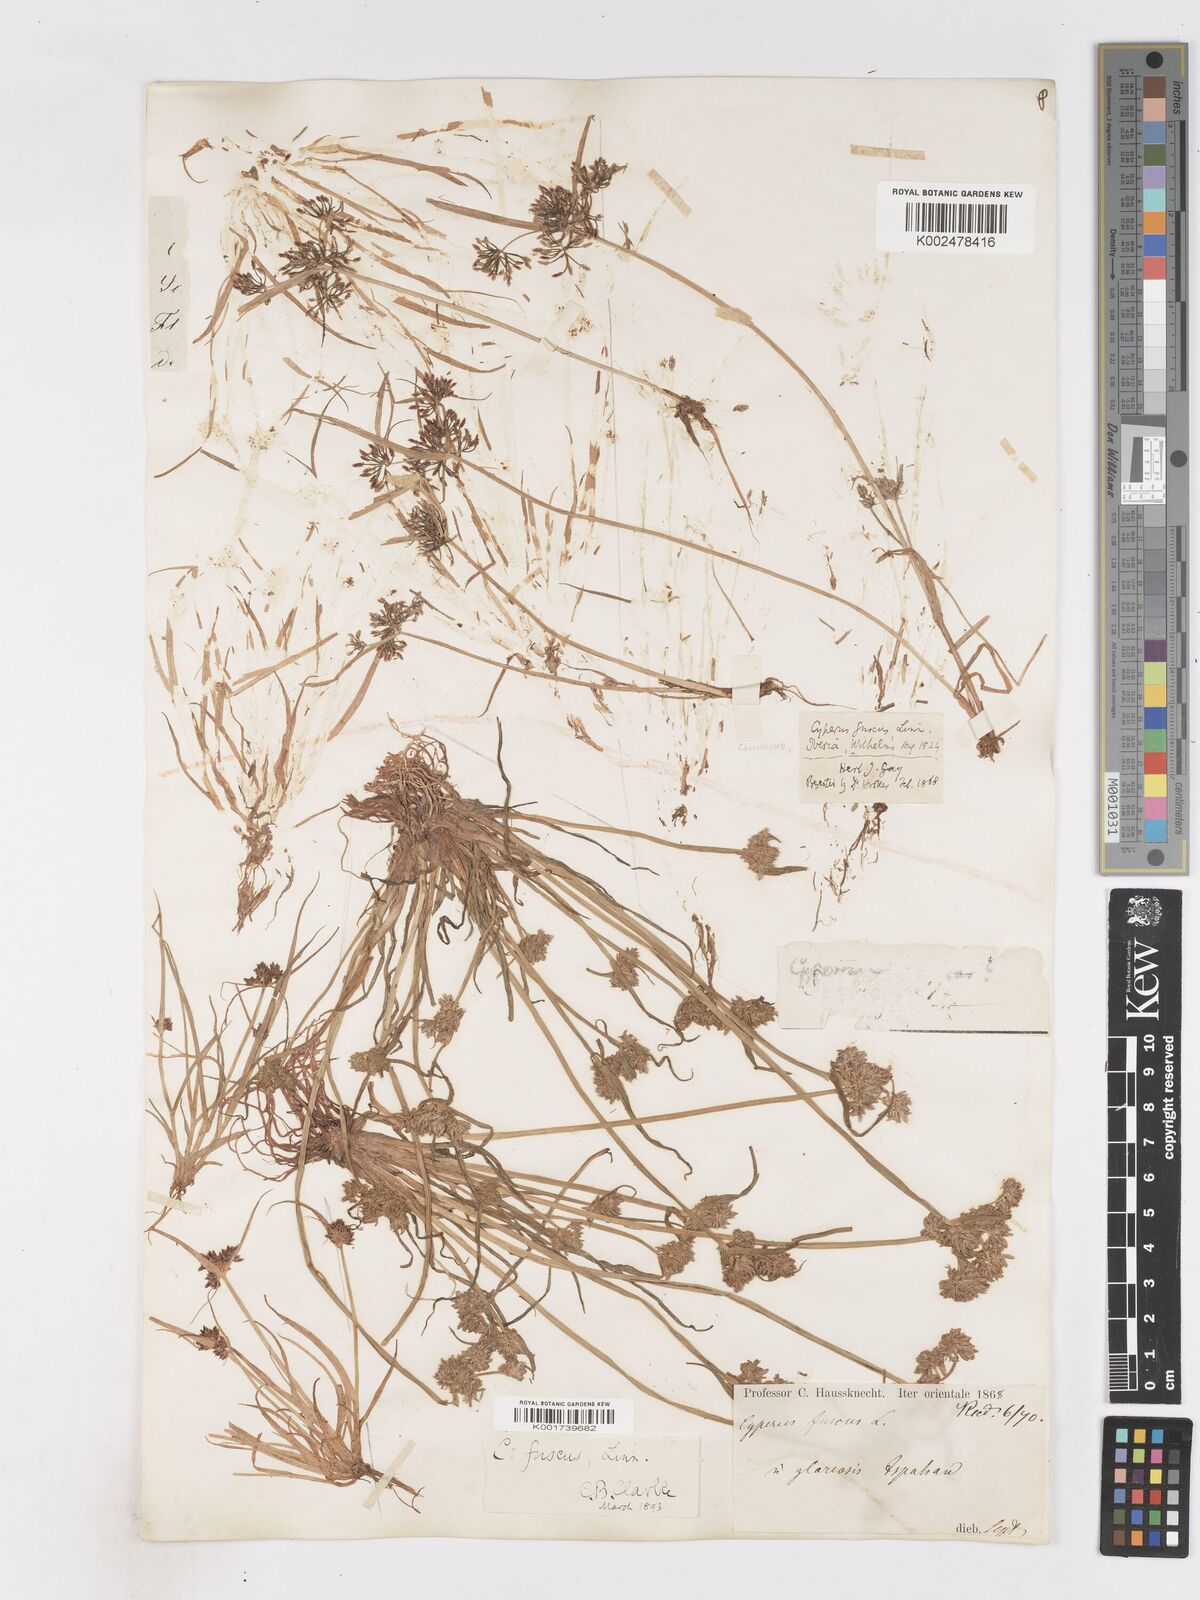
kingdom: Plantae
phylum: Tracheophyta
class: Liliopsida
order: Poales
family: Cyperaceae
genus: Cyperus
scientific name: Cyperus fuscus
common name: Brown galingale
